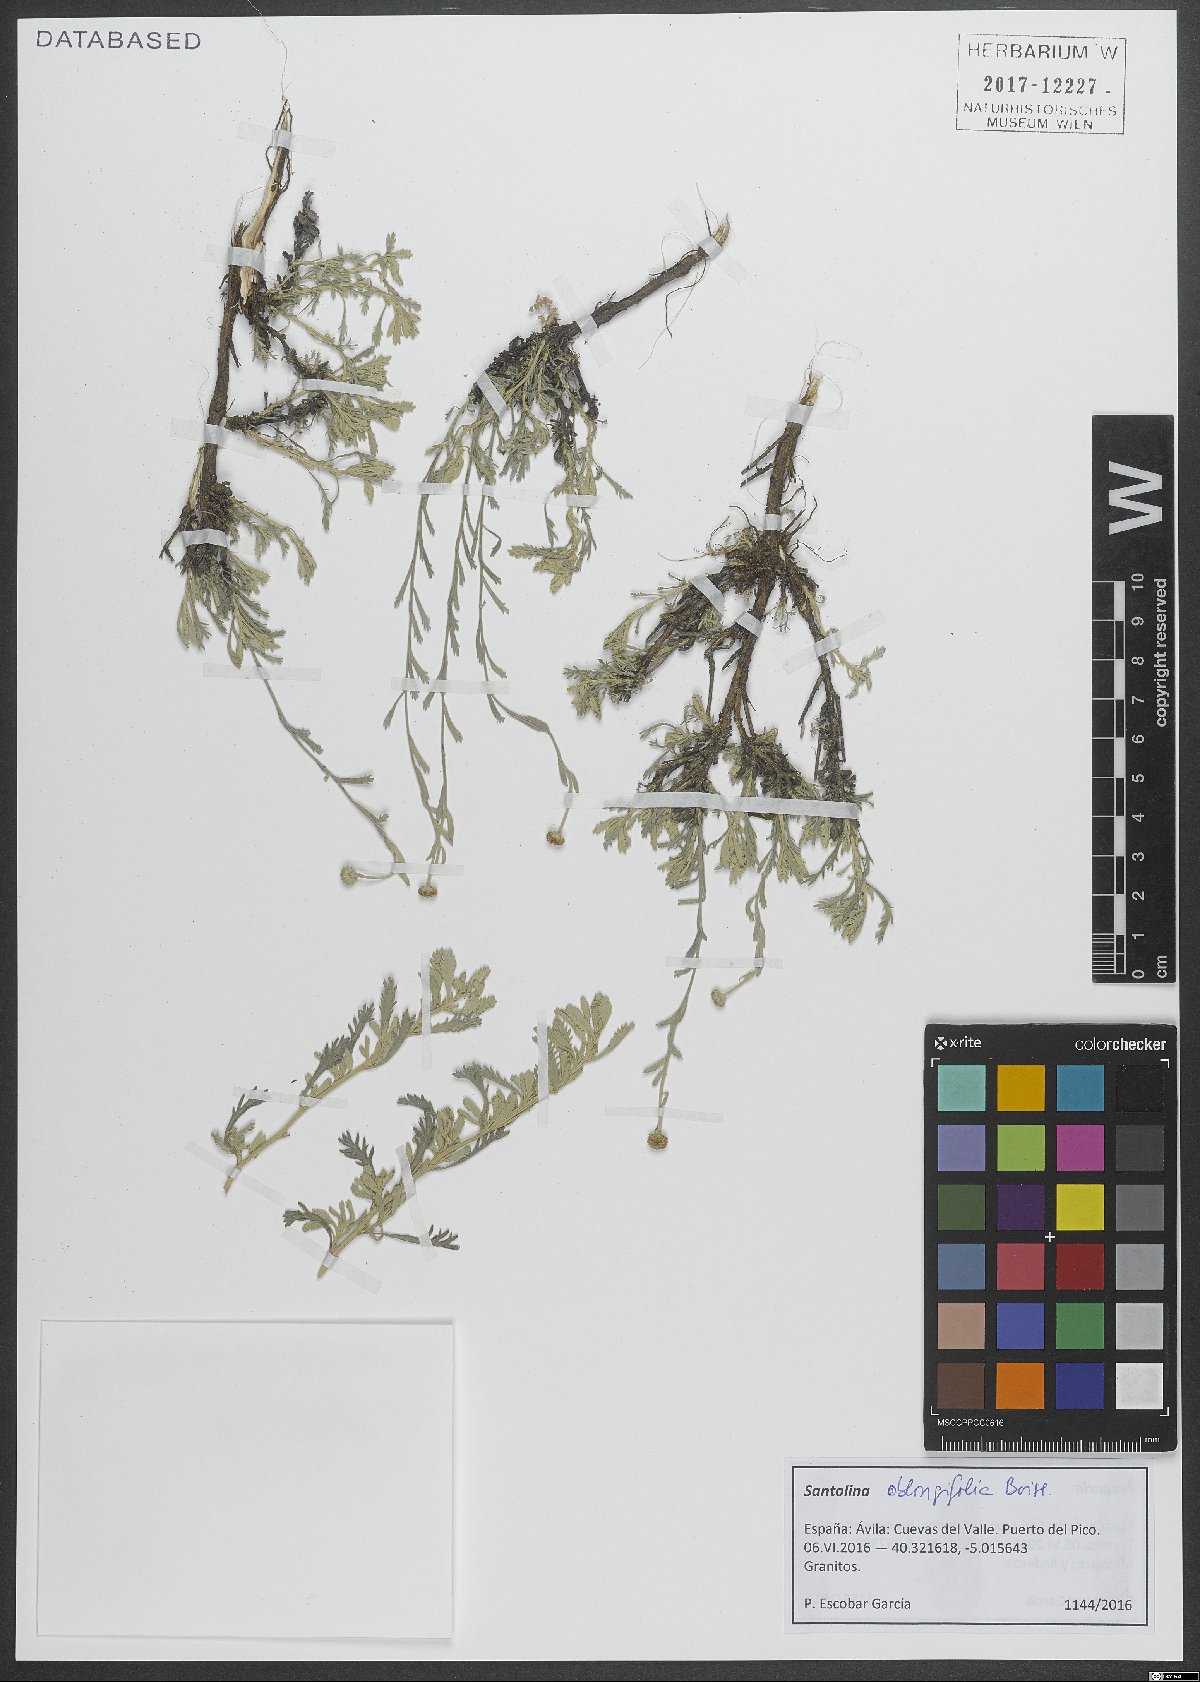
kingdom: Plantae
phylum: Tracheophyta
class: Magnoliopsida
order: Asterales
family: Asteraceae
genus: Santolina
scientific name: Santolina oblongifolia
